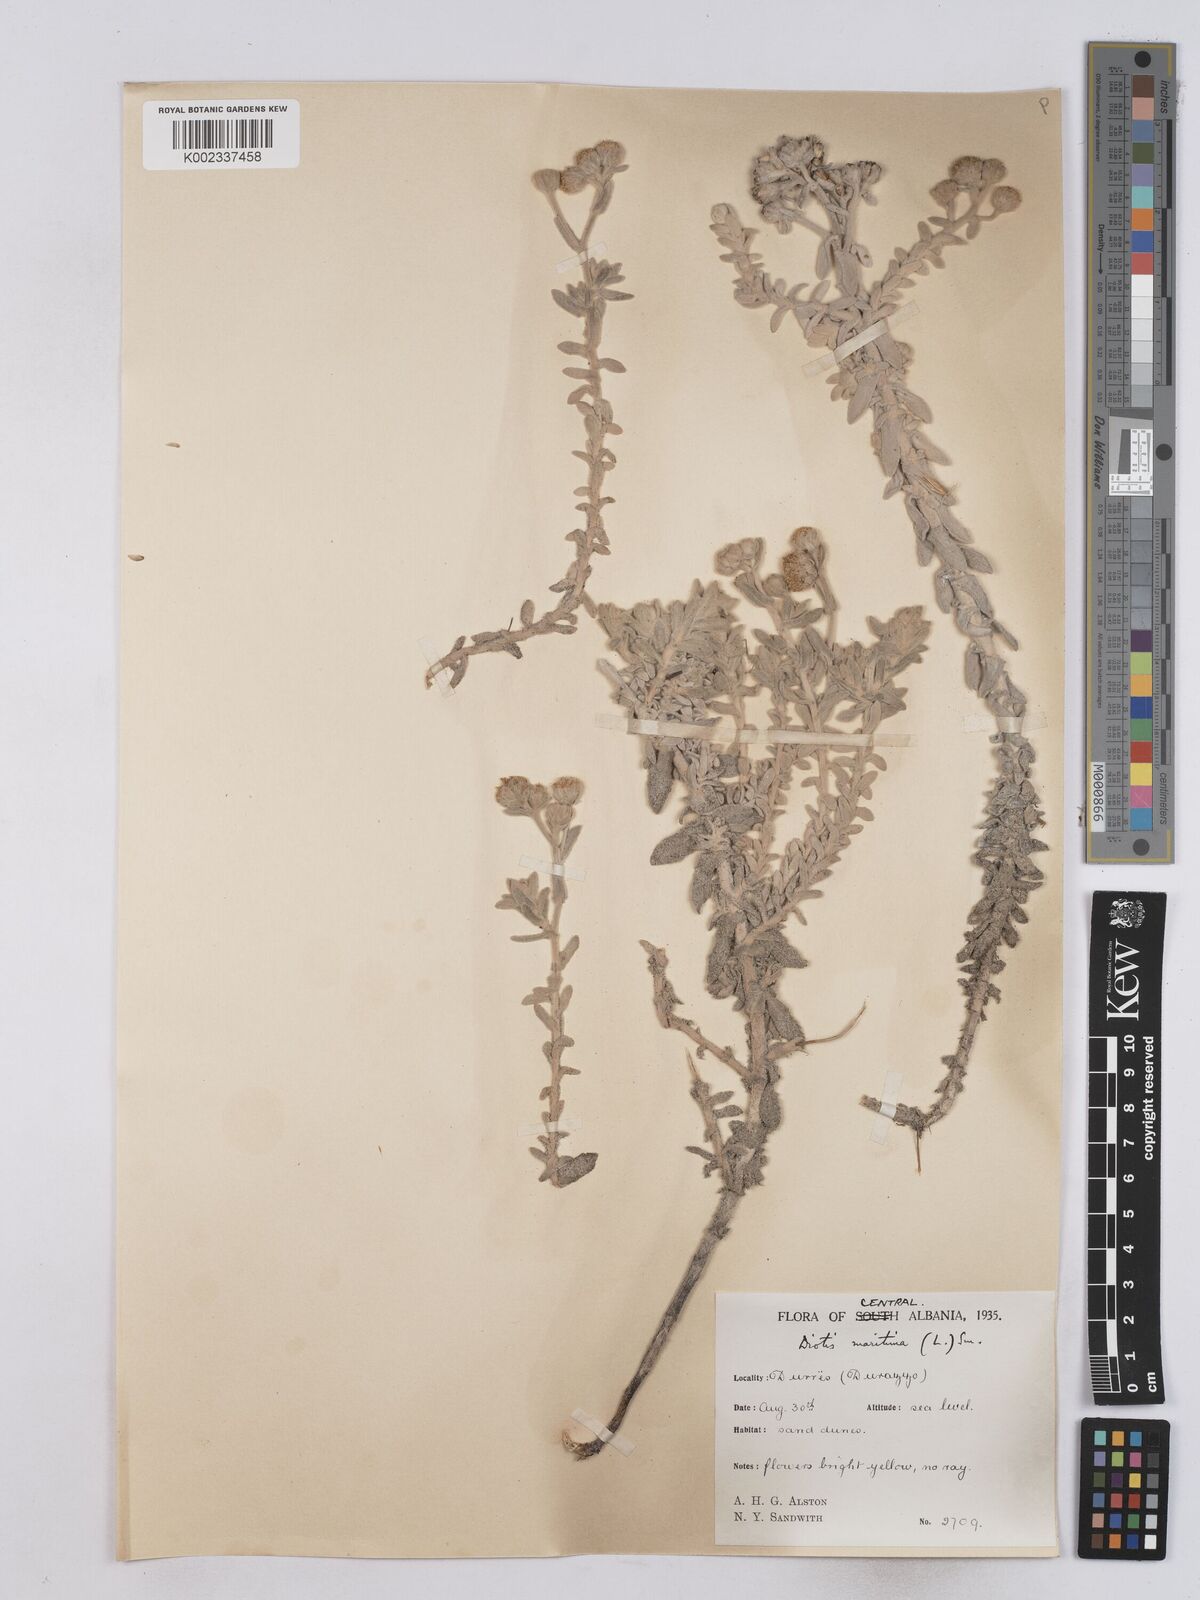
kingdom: Plantae
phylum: Tracheophyta
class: Magnoliopsida
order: Asterales
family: Asteraceae
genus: Achillea
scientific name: Achillea maritima
